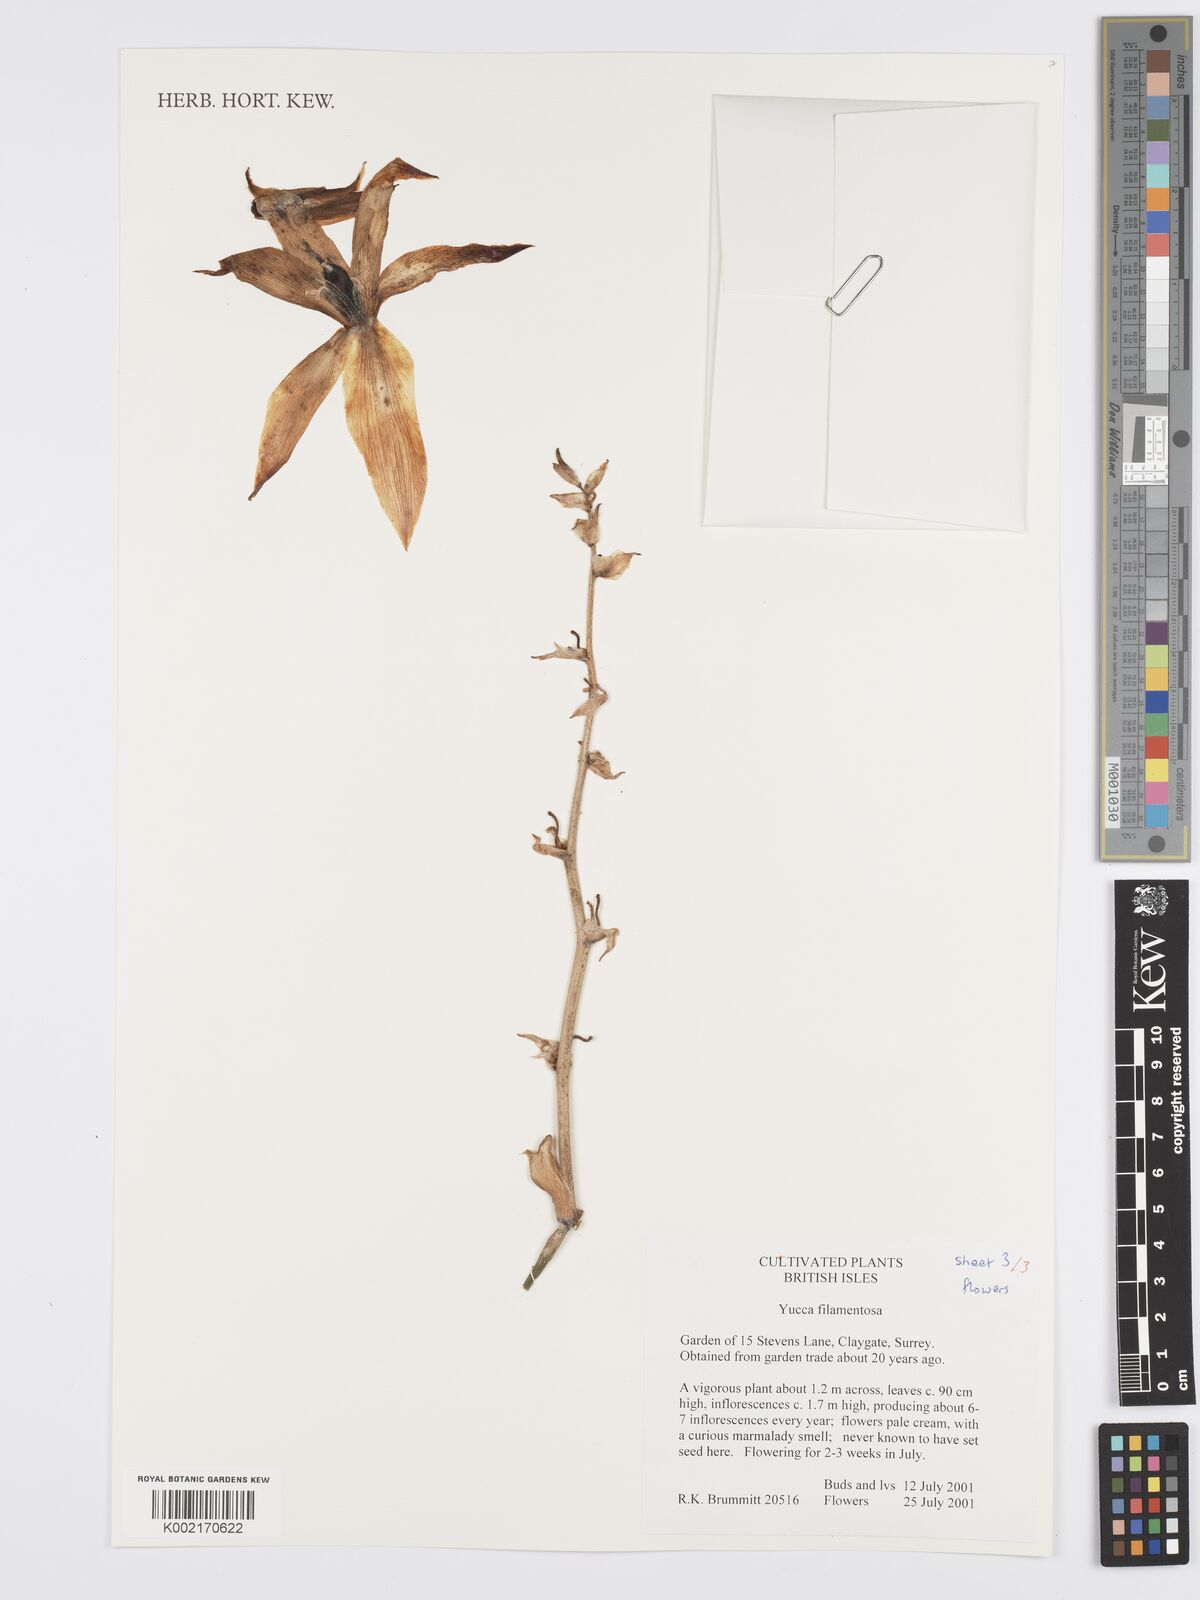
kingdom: Plantae
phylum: Tracheophyta
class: Liliopsida
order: Asparagales
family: Asparagaceae
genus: Yucca
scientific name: Yucca filamentosa
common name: Adam's-needle
